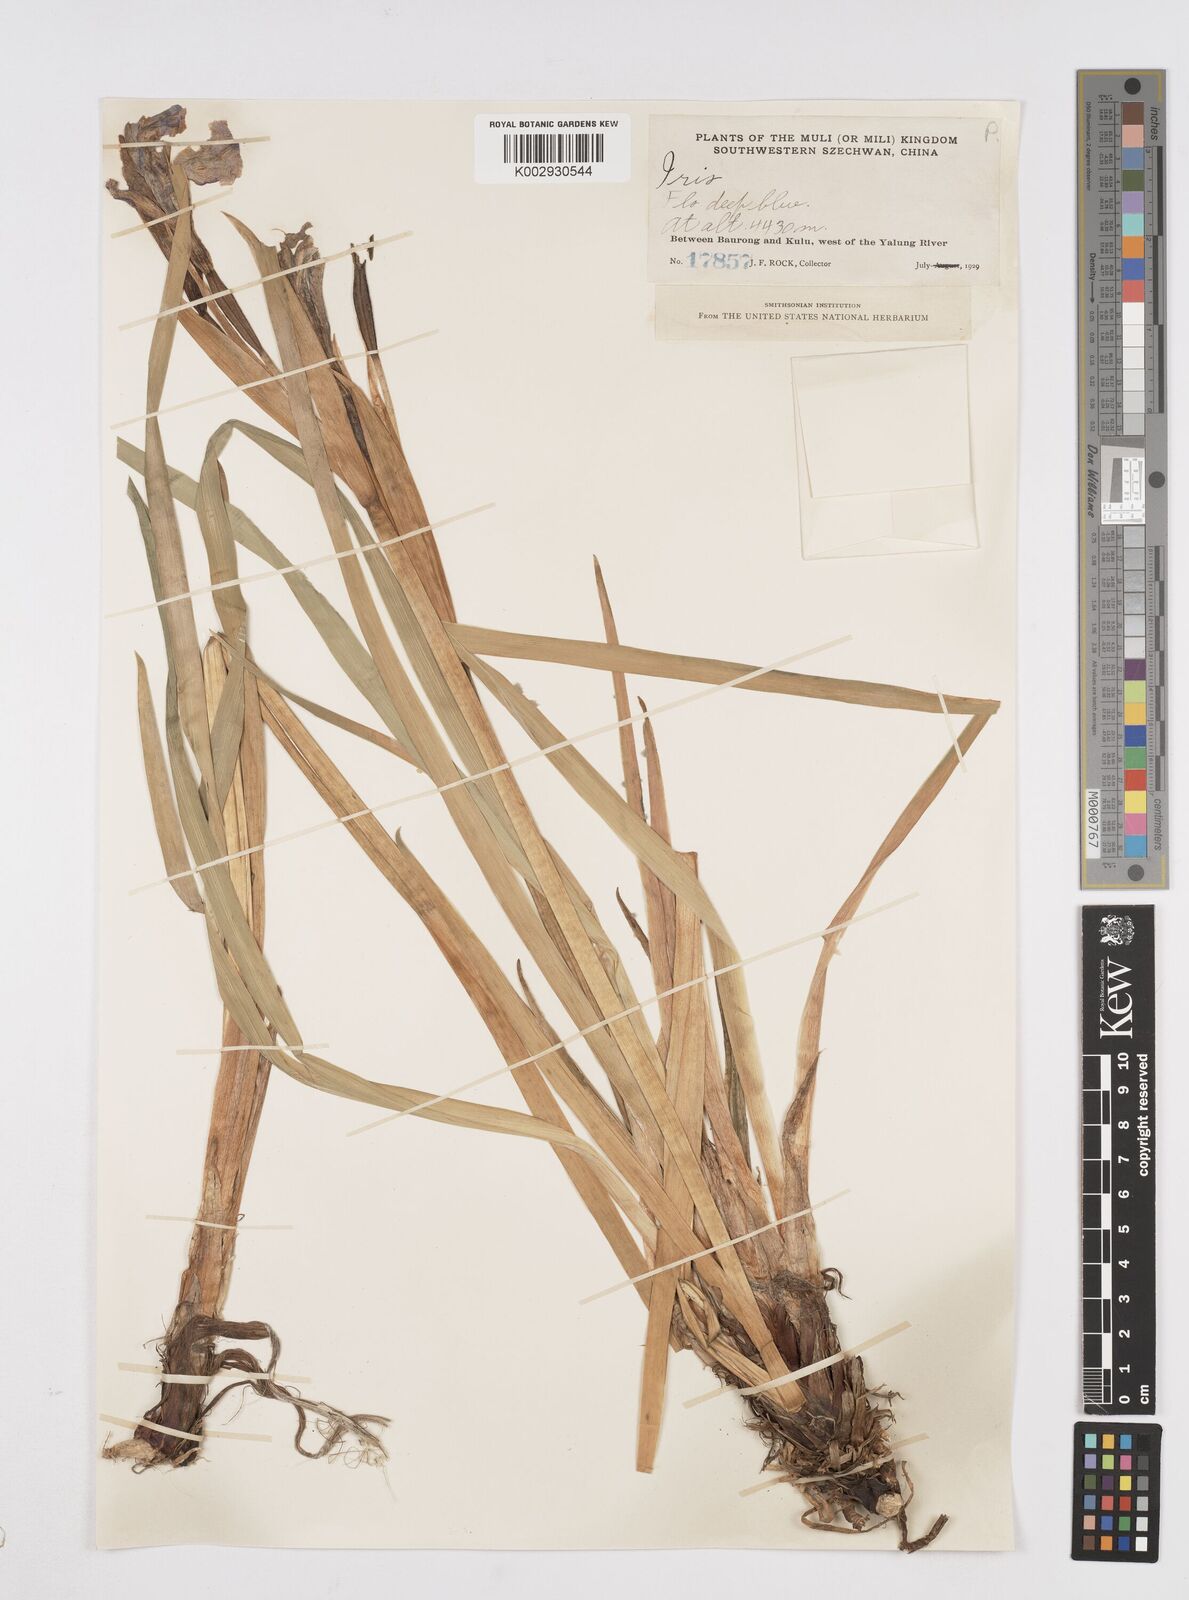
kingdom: Plantae
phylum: Tracheophyta
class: Liliopsida
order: Asparagales
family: Iridaceae
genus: Iris
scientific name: Iris bulleyana
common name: Southwest iris
